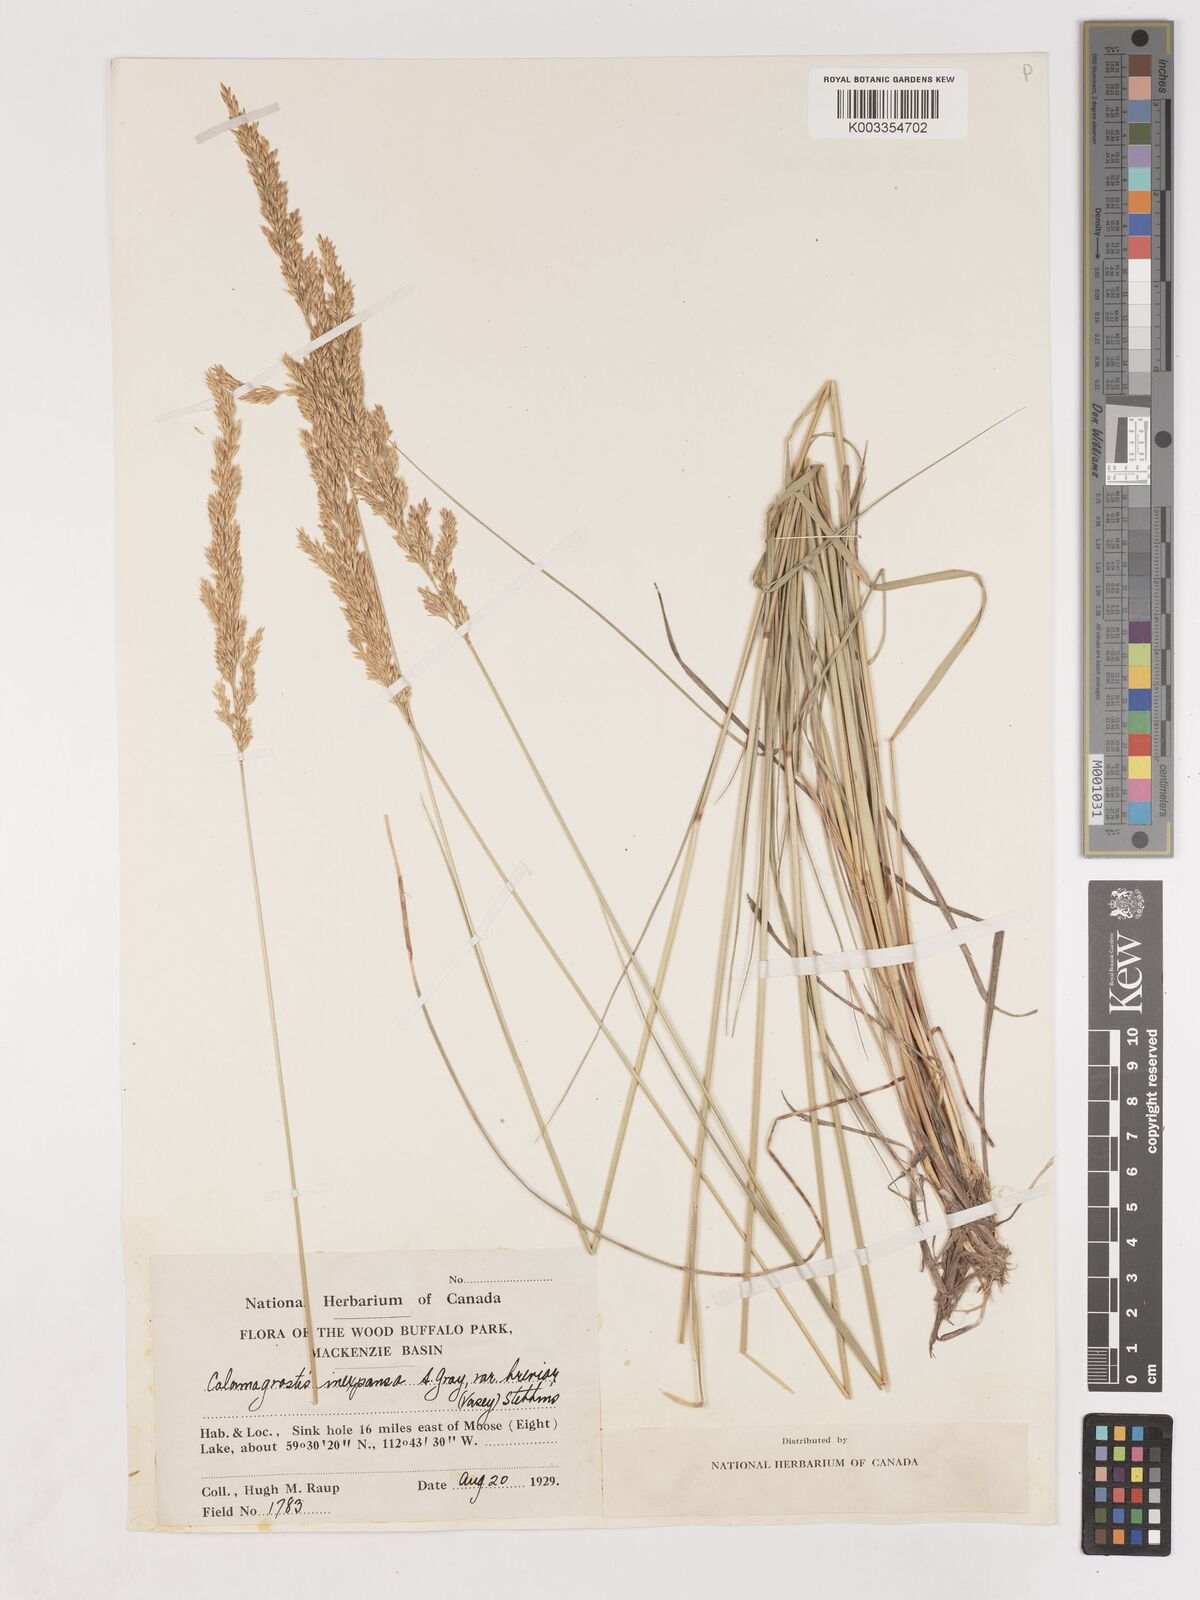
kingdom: Plantae
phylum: Tracheophyta
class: Liliopsida
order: Poales
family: Poaceae
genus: Cinnagrostis
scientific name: Cinnagrostis recta
